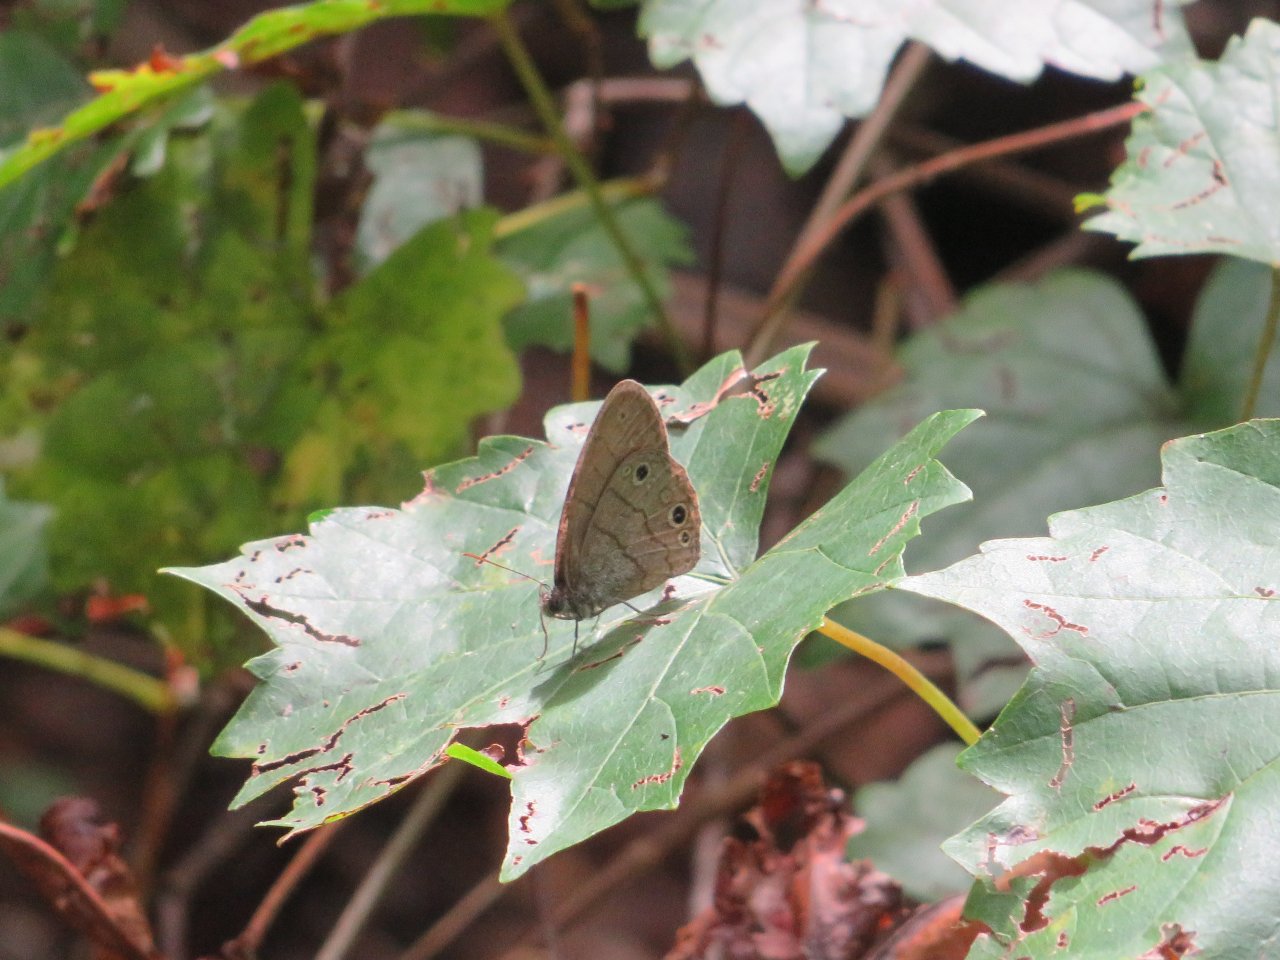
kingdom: Animalia
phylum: Arthropoda
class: Insecta
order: Lepidoptera
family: Nymphalidae
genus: Hermeuptychia
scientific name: Hermeuptychia intricata
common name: Intricate Satyr
